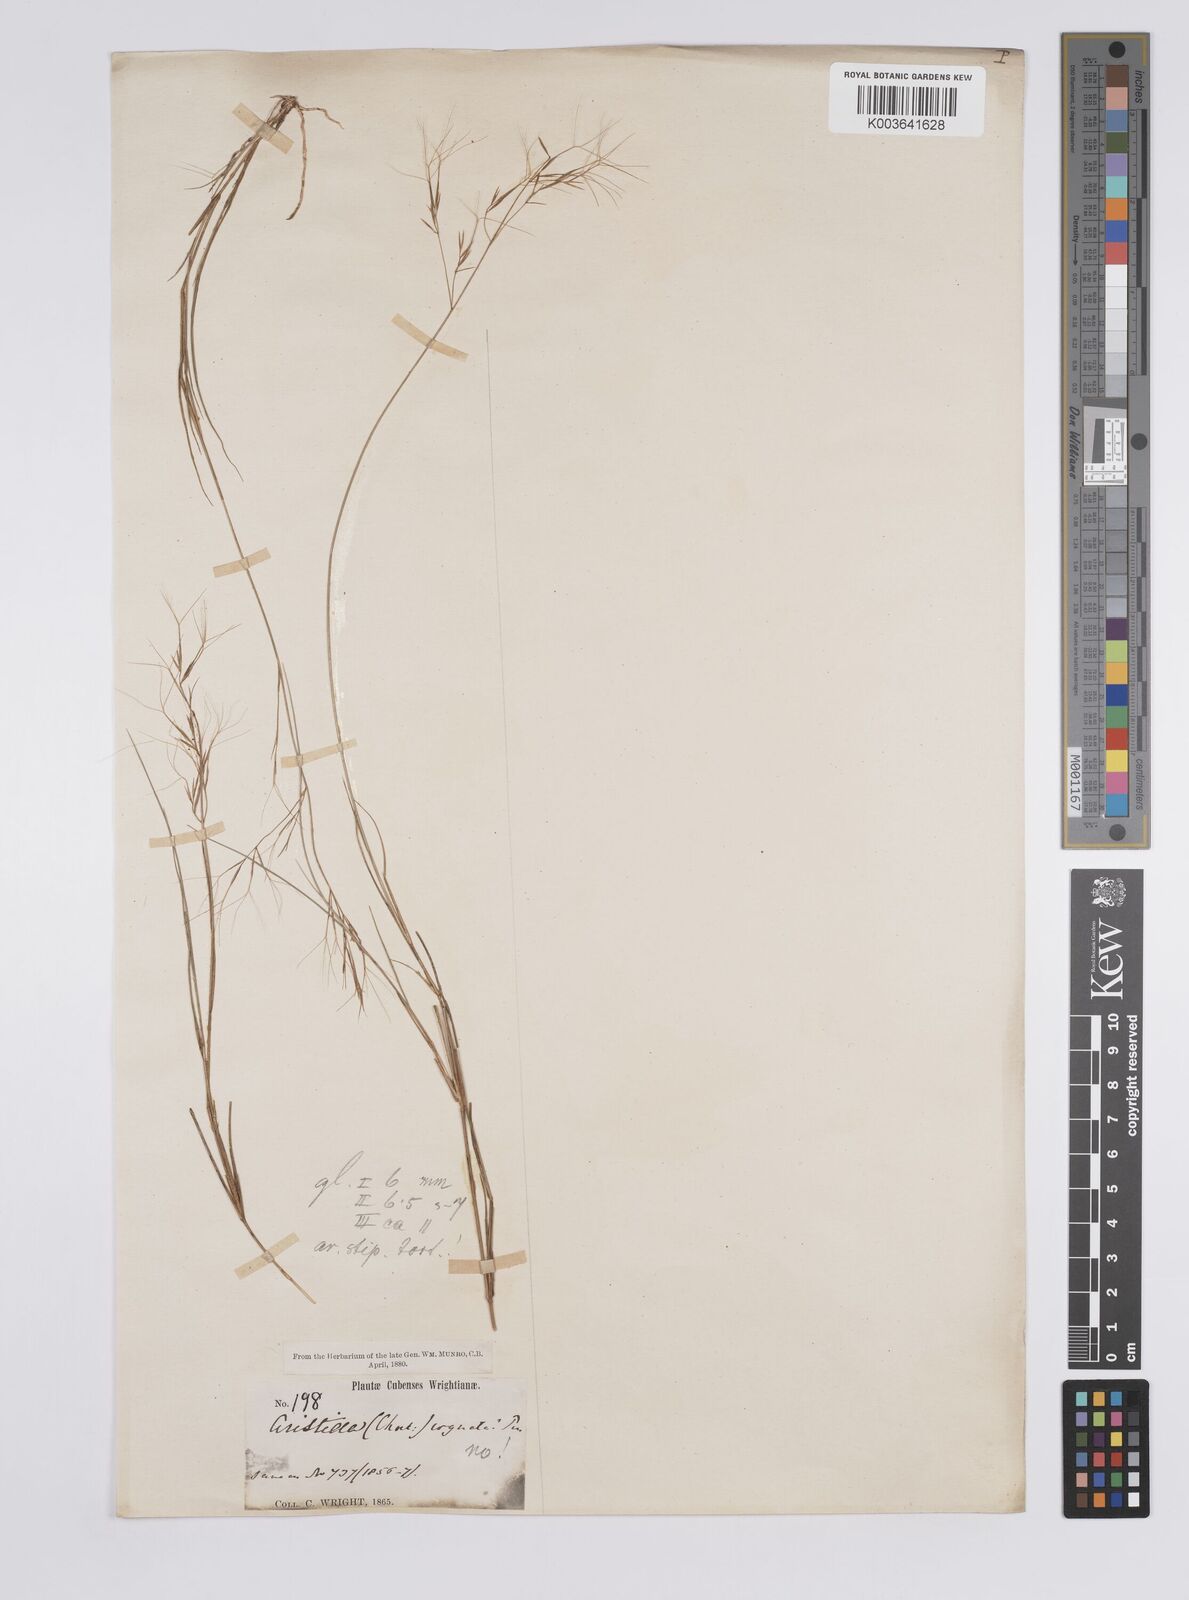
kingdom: Plantae
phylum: Tracheophyta
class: Liliopsida
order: Poales
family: Poaceae
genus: Aristida
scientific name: Aristida neglecta
